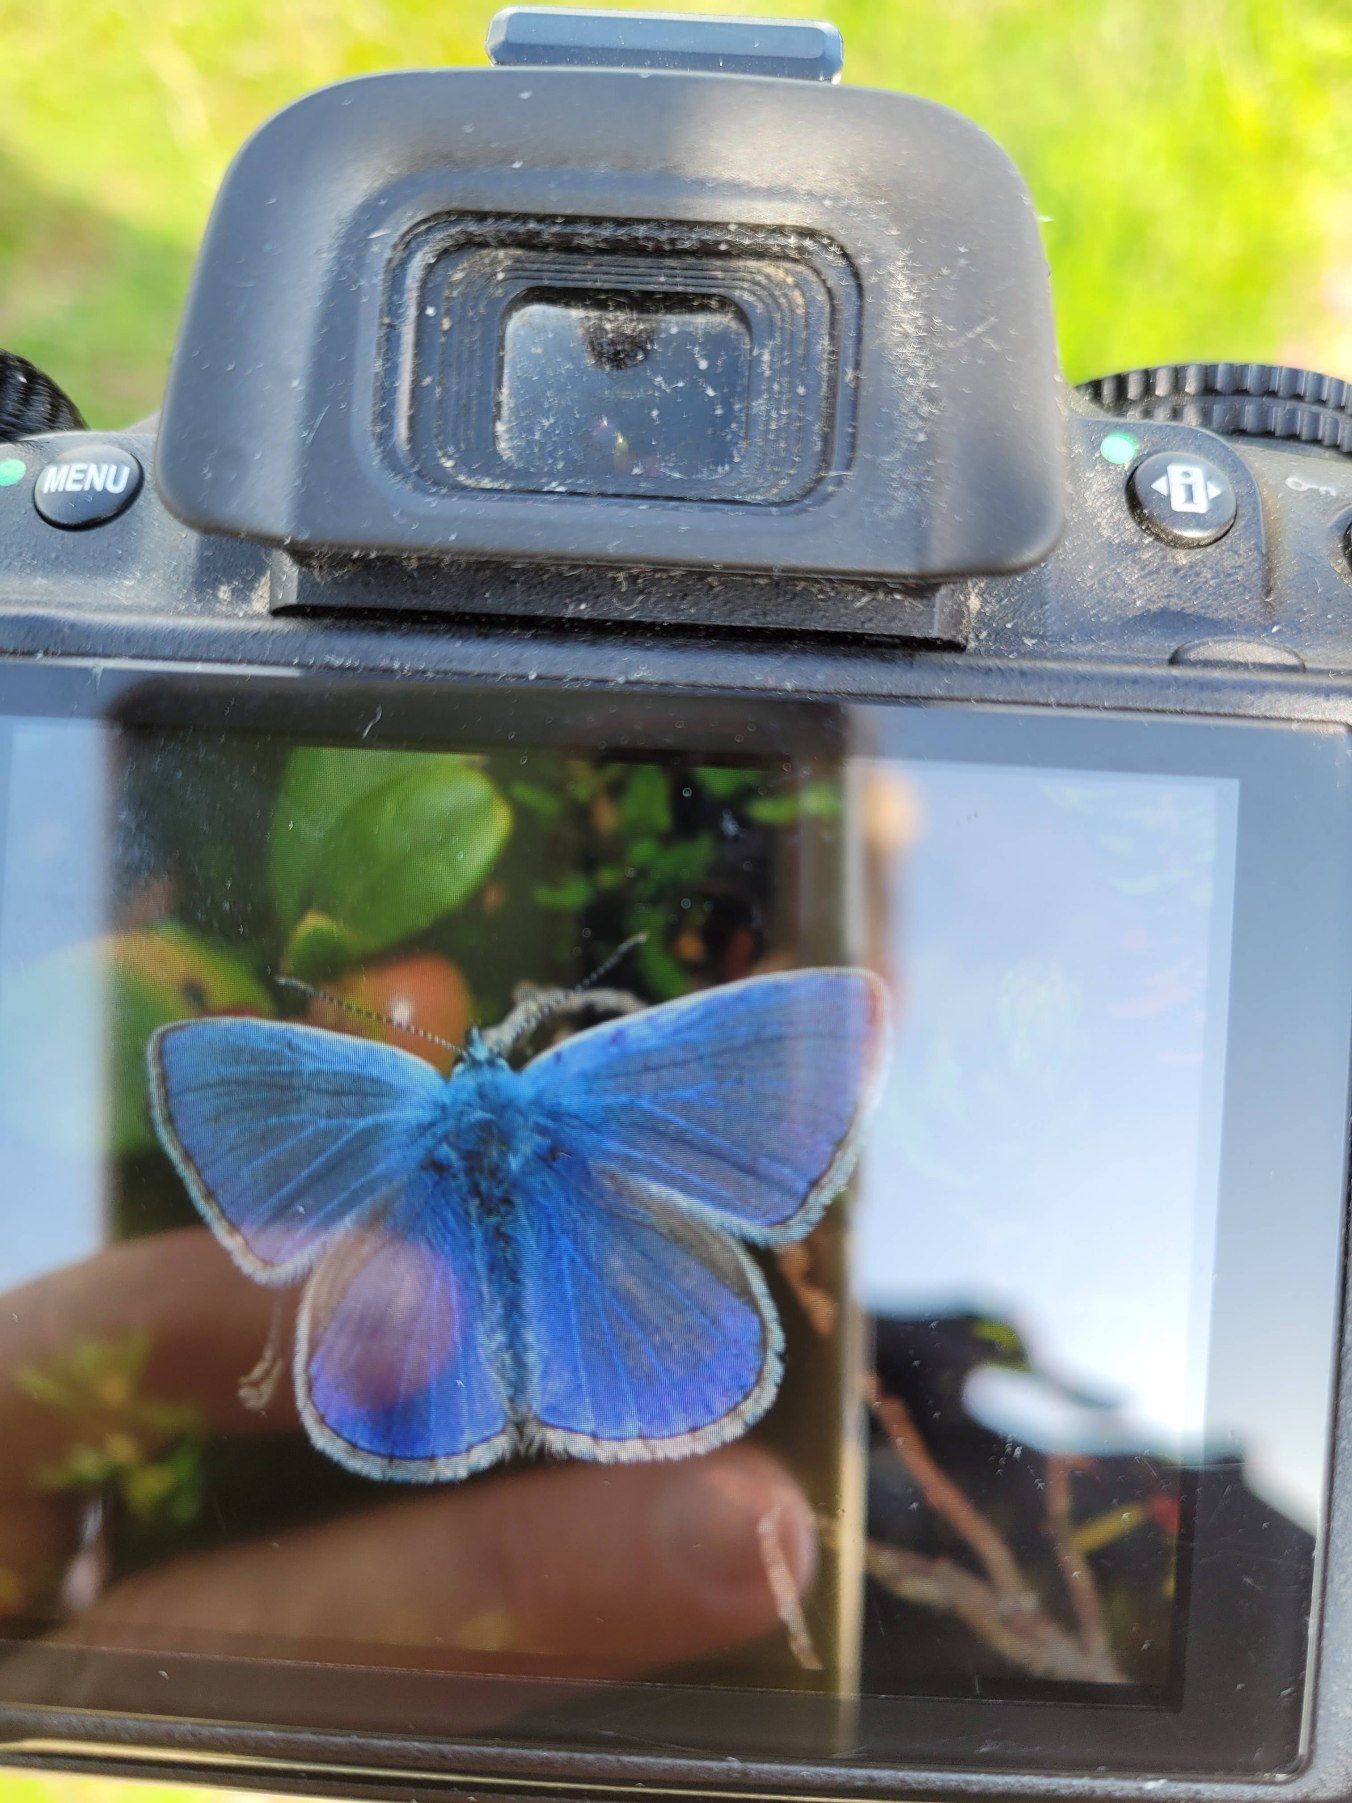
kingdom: Animalia
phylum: Arthropoda
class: Insecta
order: Lepidoptera
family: Lycaenidae
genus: Polyommatus
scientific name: Polyommatus icarus
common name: Almindelig blåfugl
